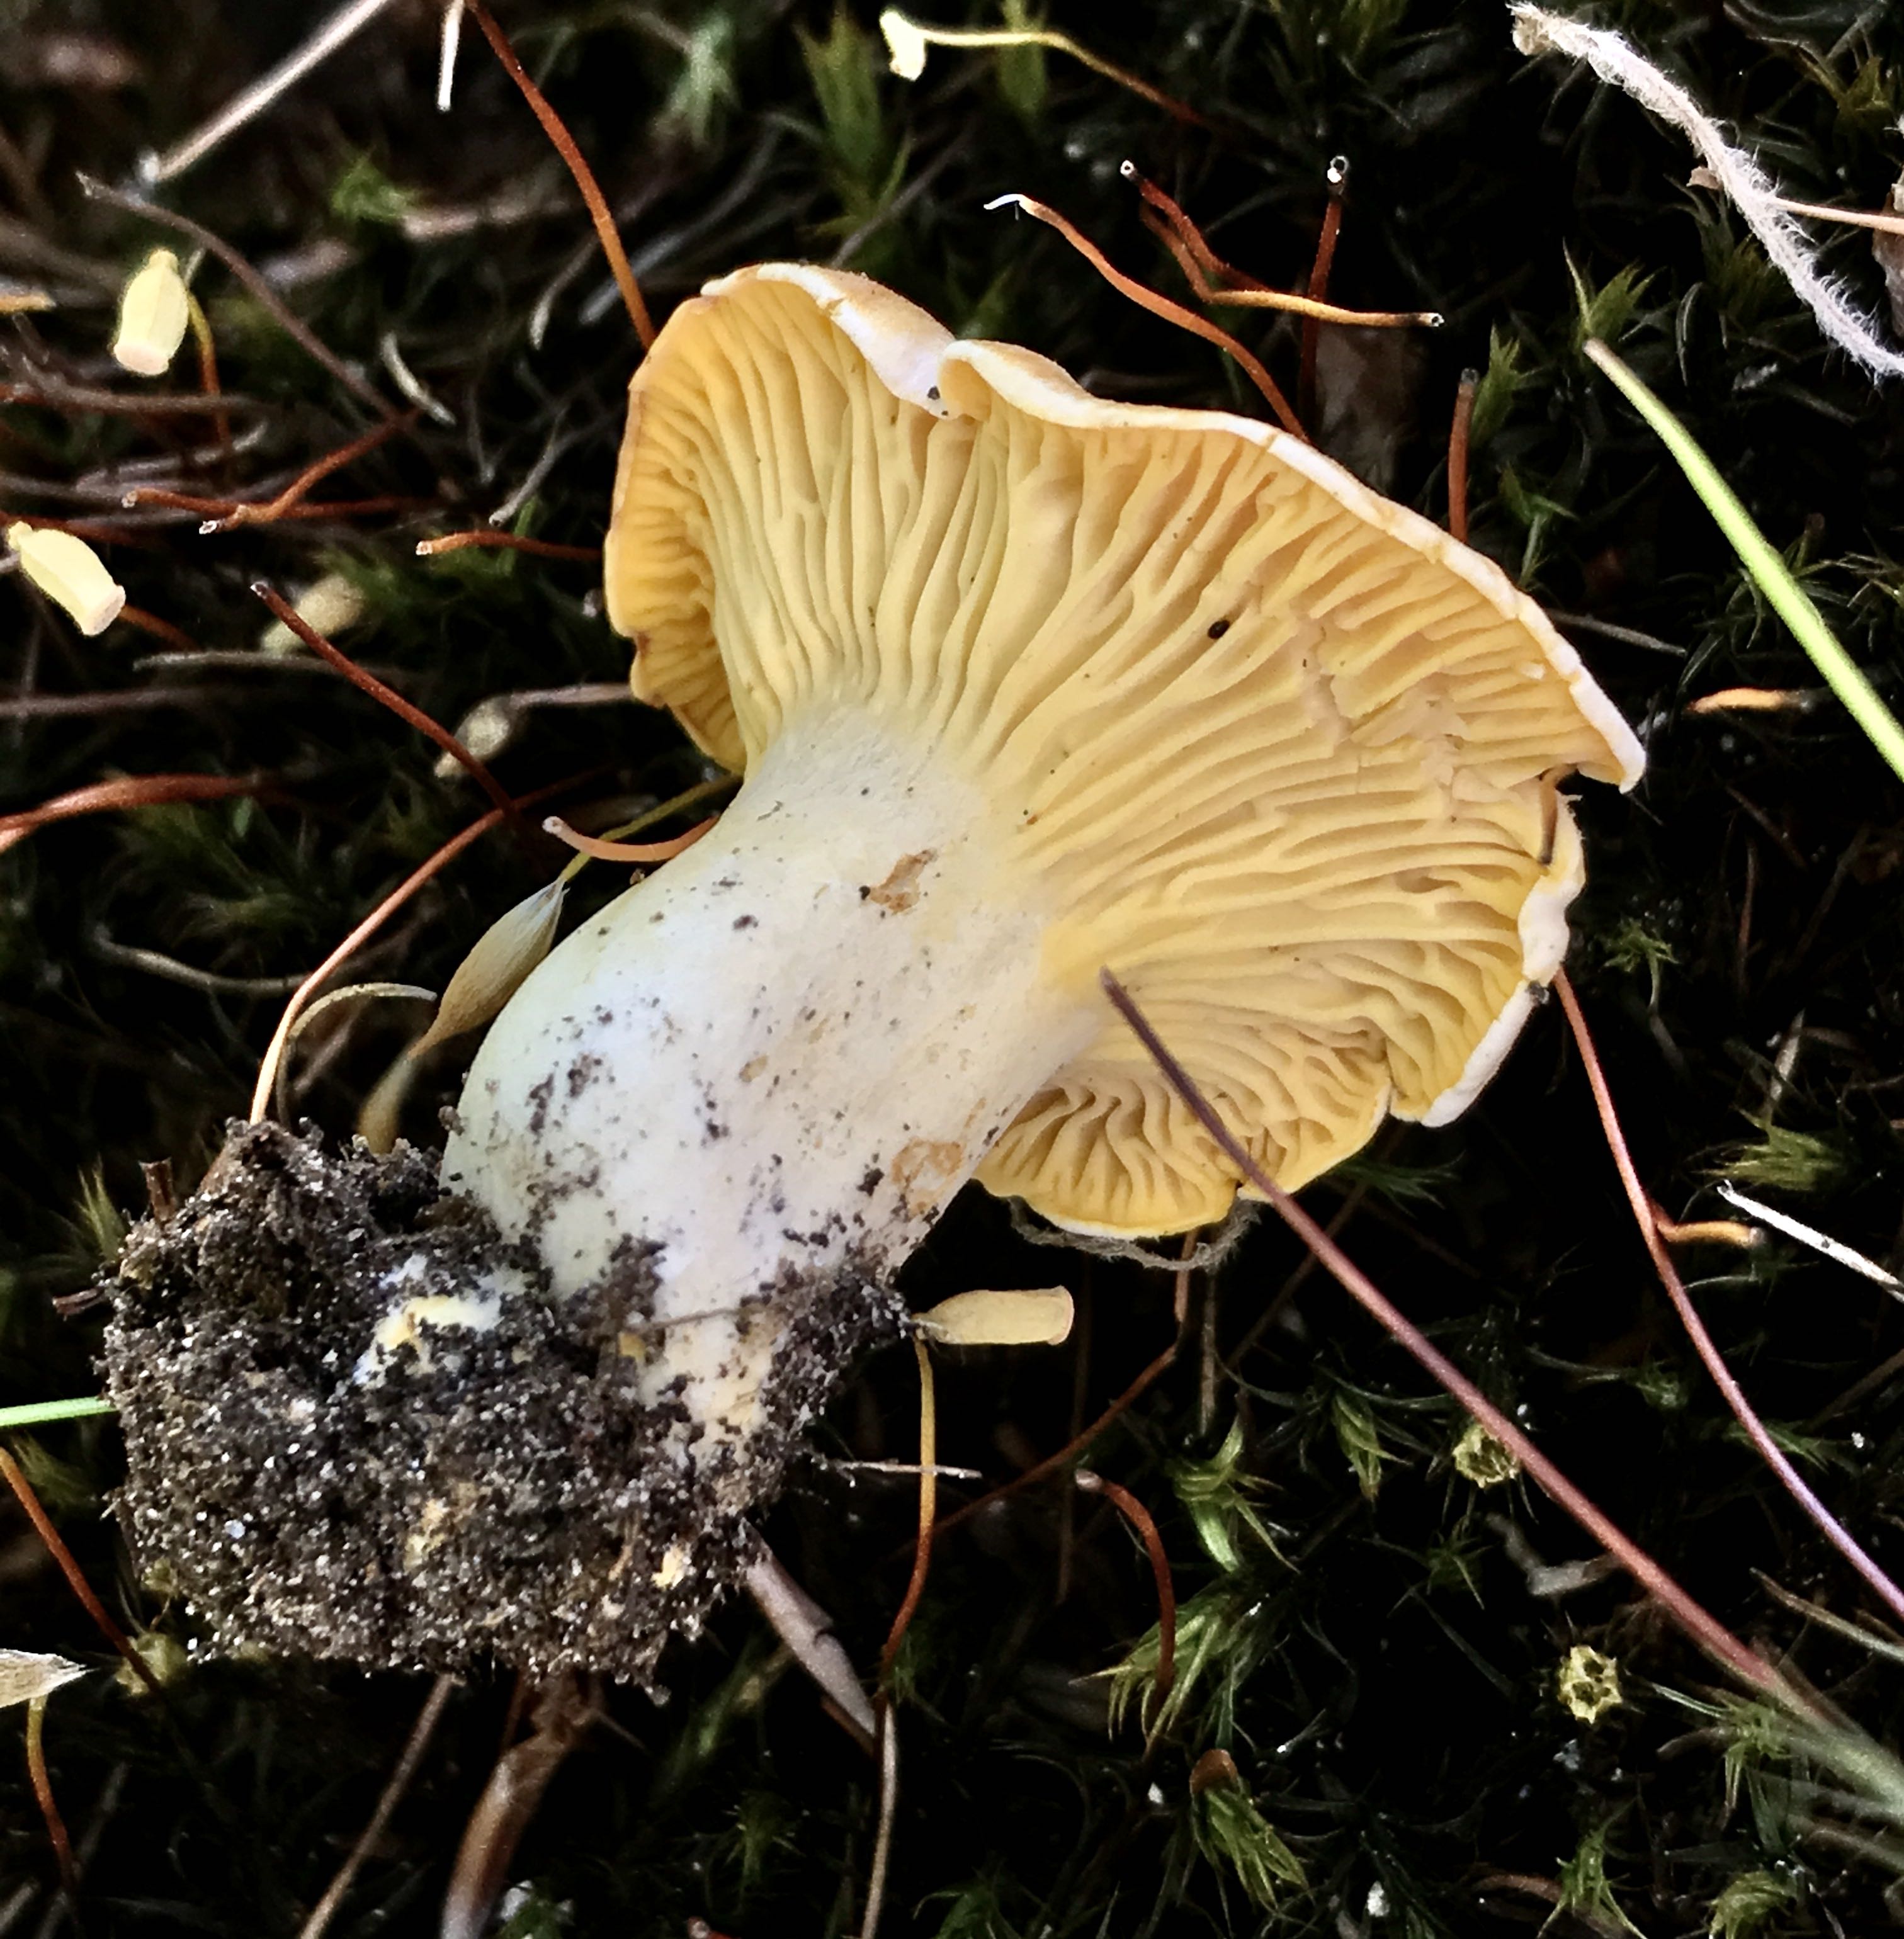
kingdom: Fungi
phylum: Basidiomycota
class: Agaricomycetes
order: Cantharellales
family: Hydnaceae
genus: Cantharellus
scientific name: Cantharellus pallens
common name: bleg kantarel
